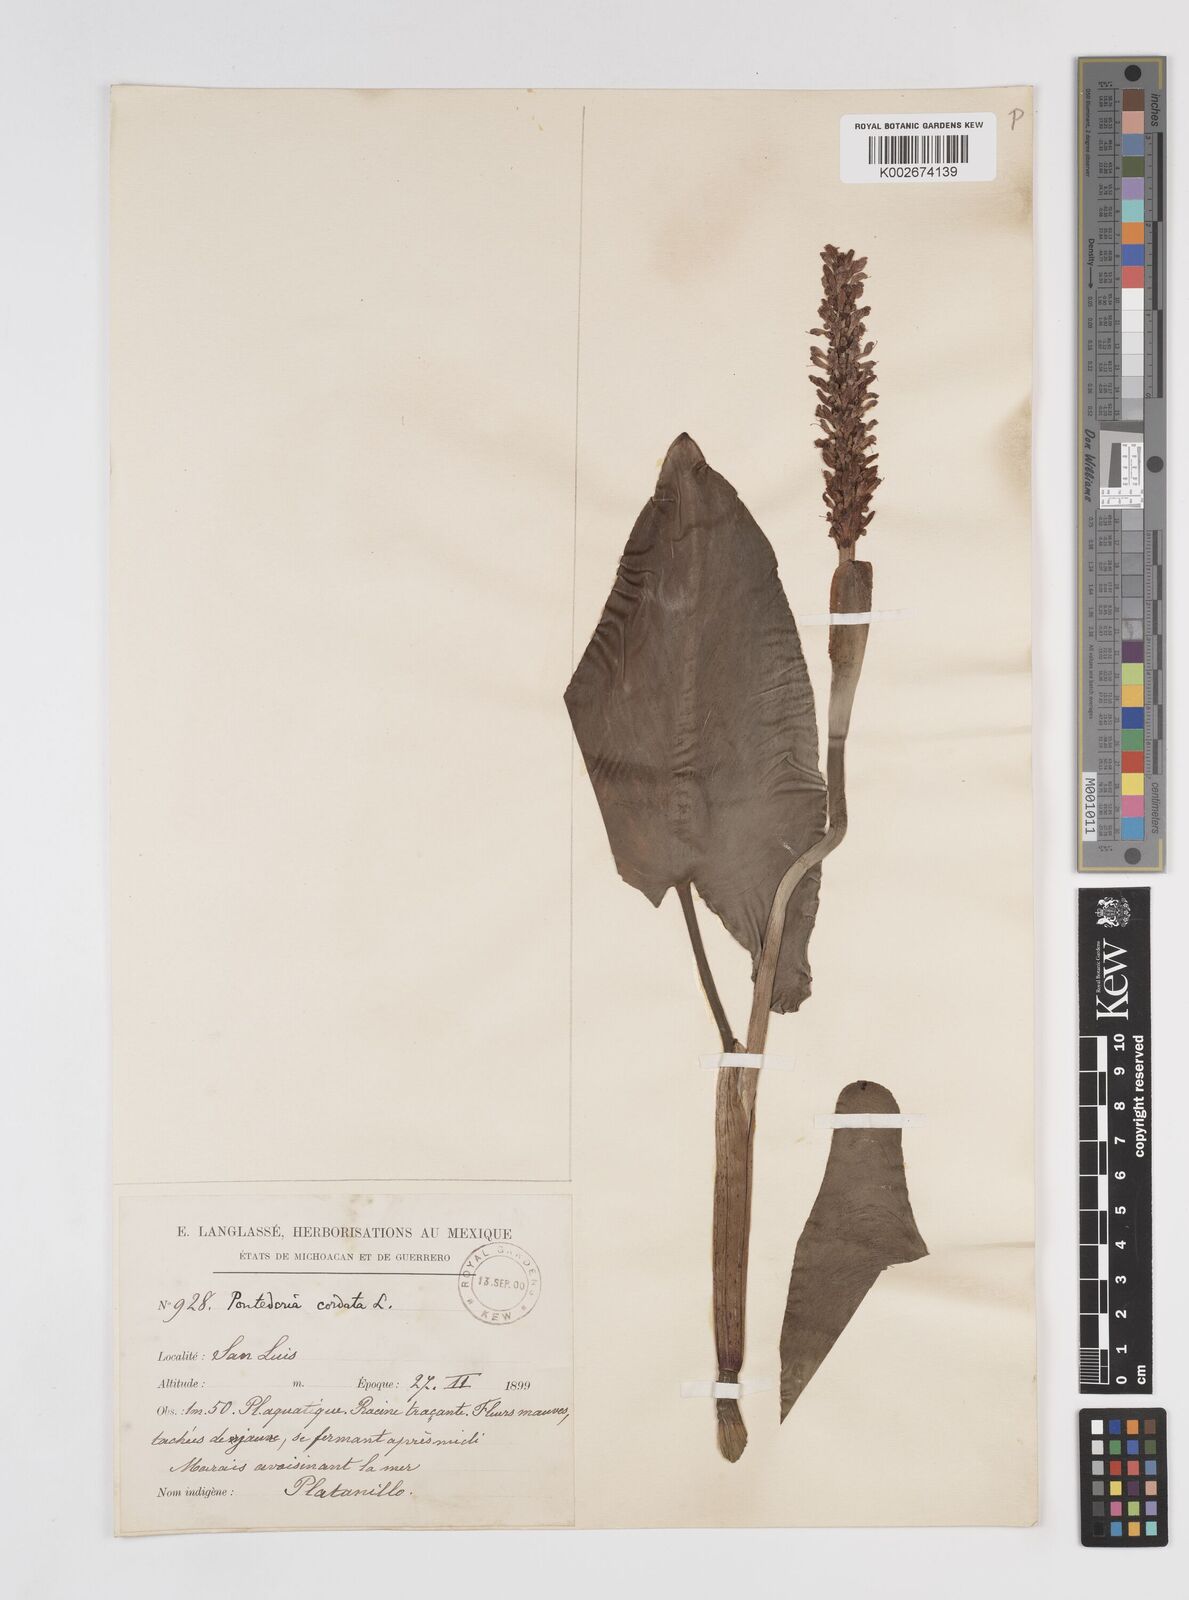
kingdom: Plantae
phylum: Tracheophyta
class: Liliopsida
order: Commelinales
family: Pontederiaceae
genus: Pontederia
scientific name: Pontederia sagittata
